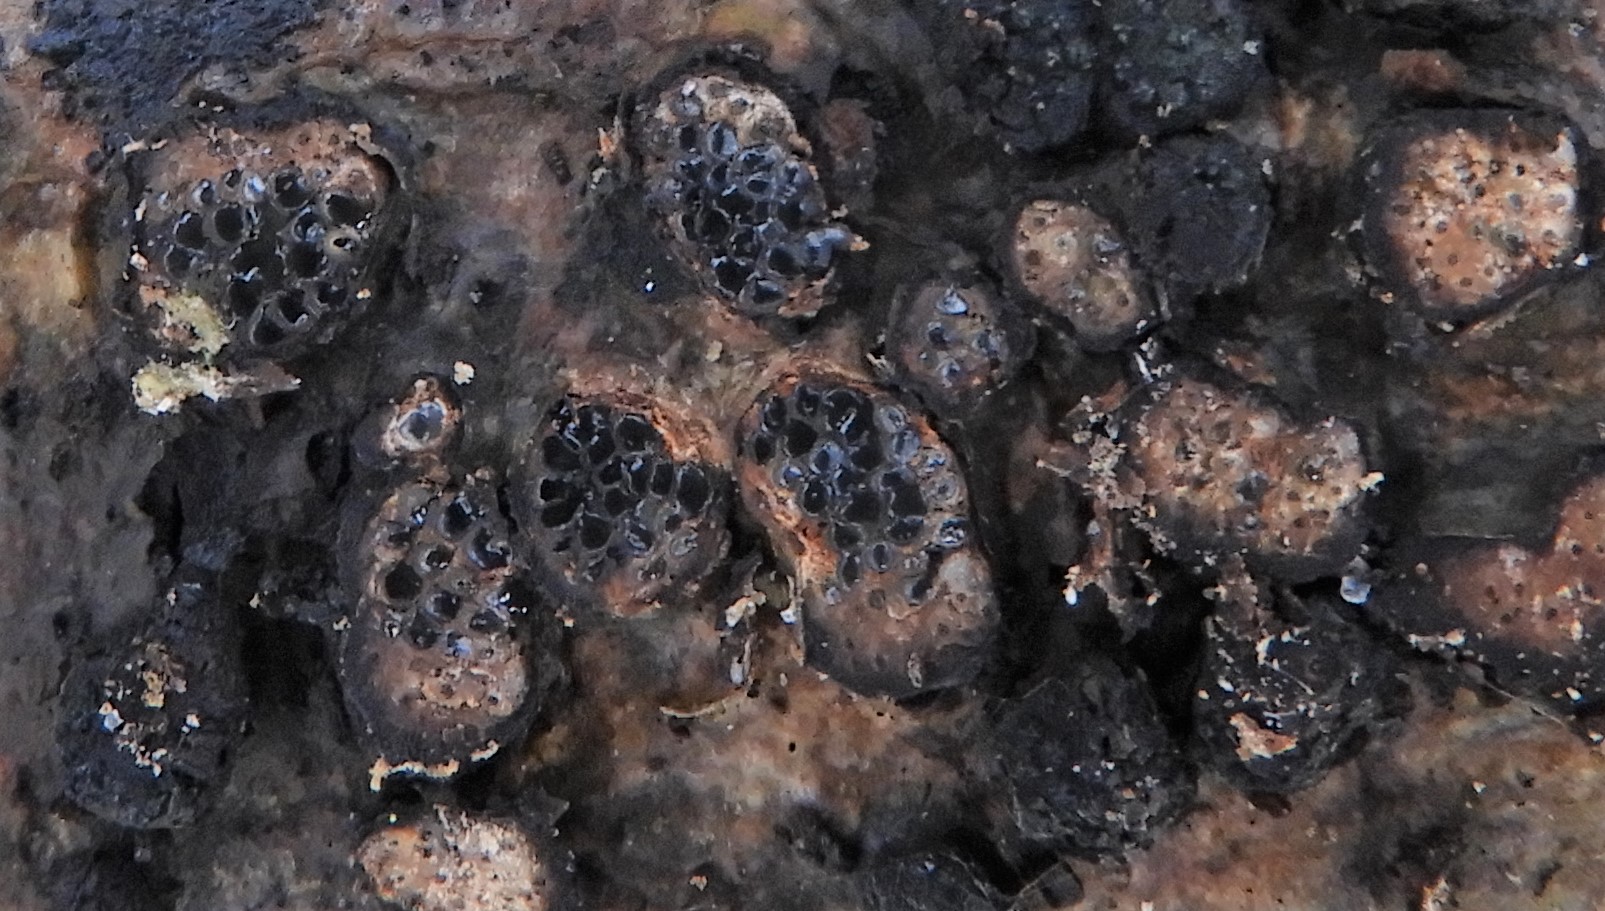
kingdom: Fungi
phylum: Ascomycota
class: Sordariomycetes
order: Xylariales
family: Diatrypaceae
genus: Diatrypella
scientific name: Diatrypella quercina
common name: ege-kulskorpe
